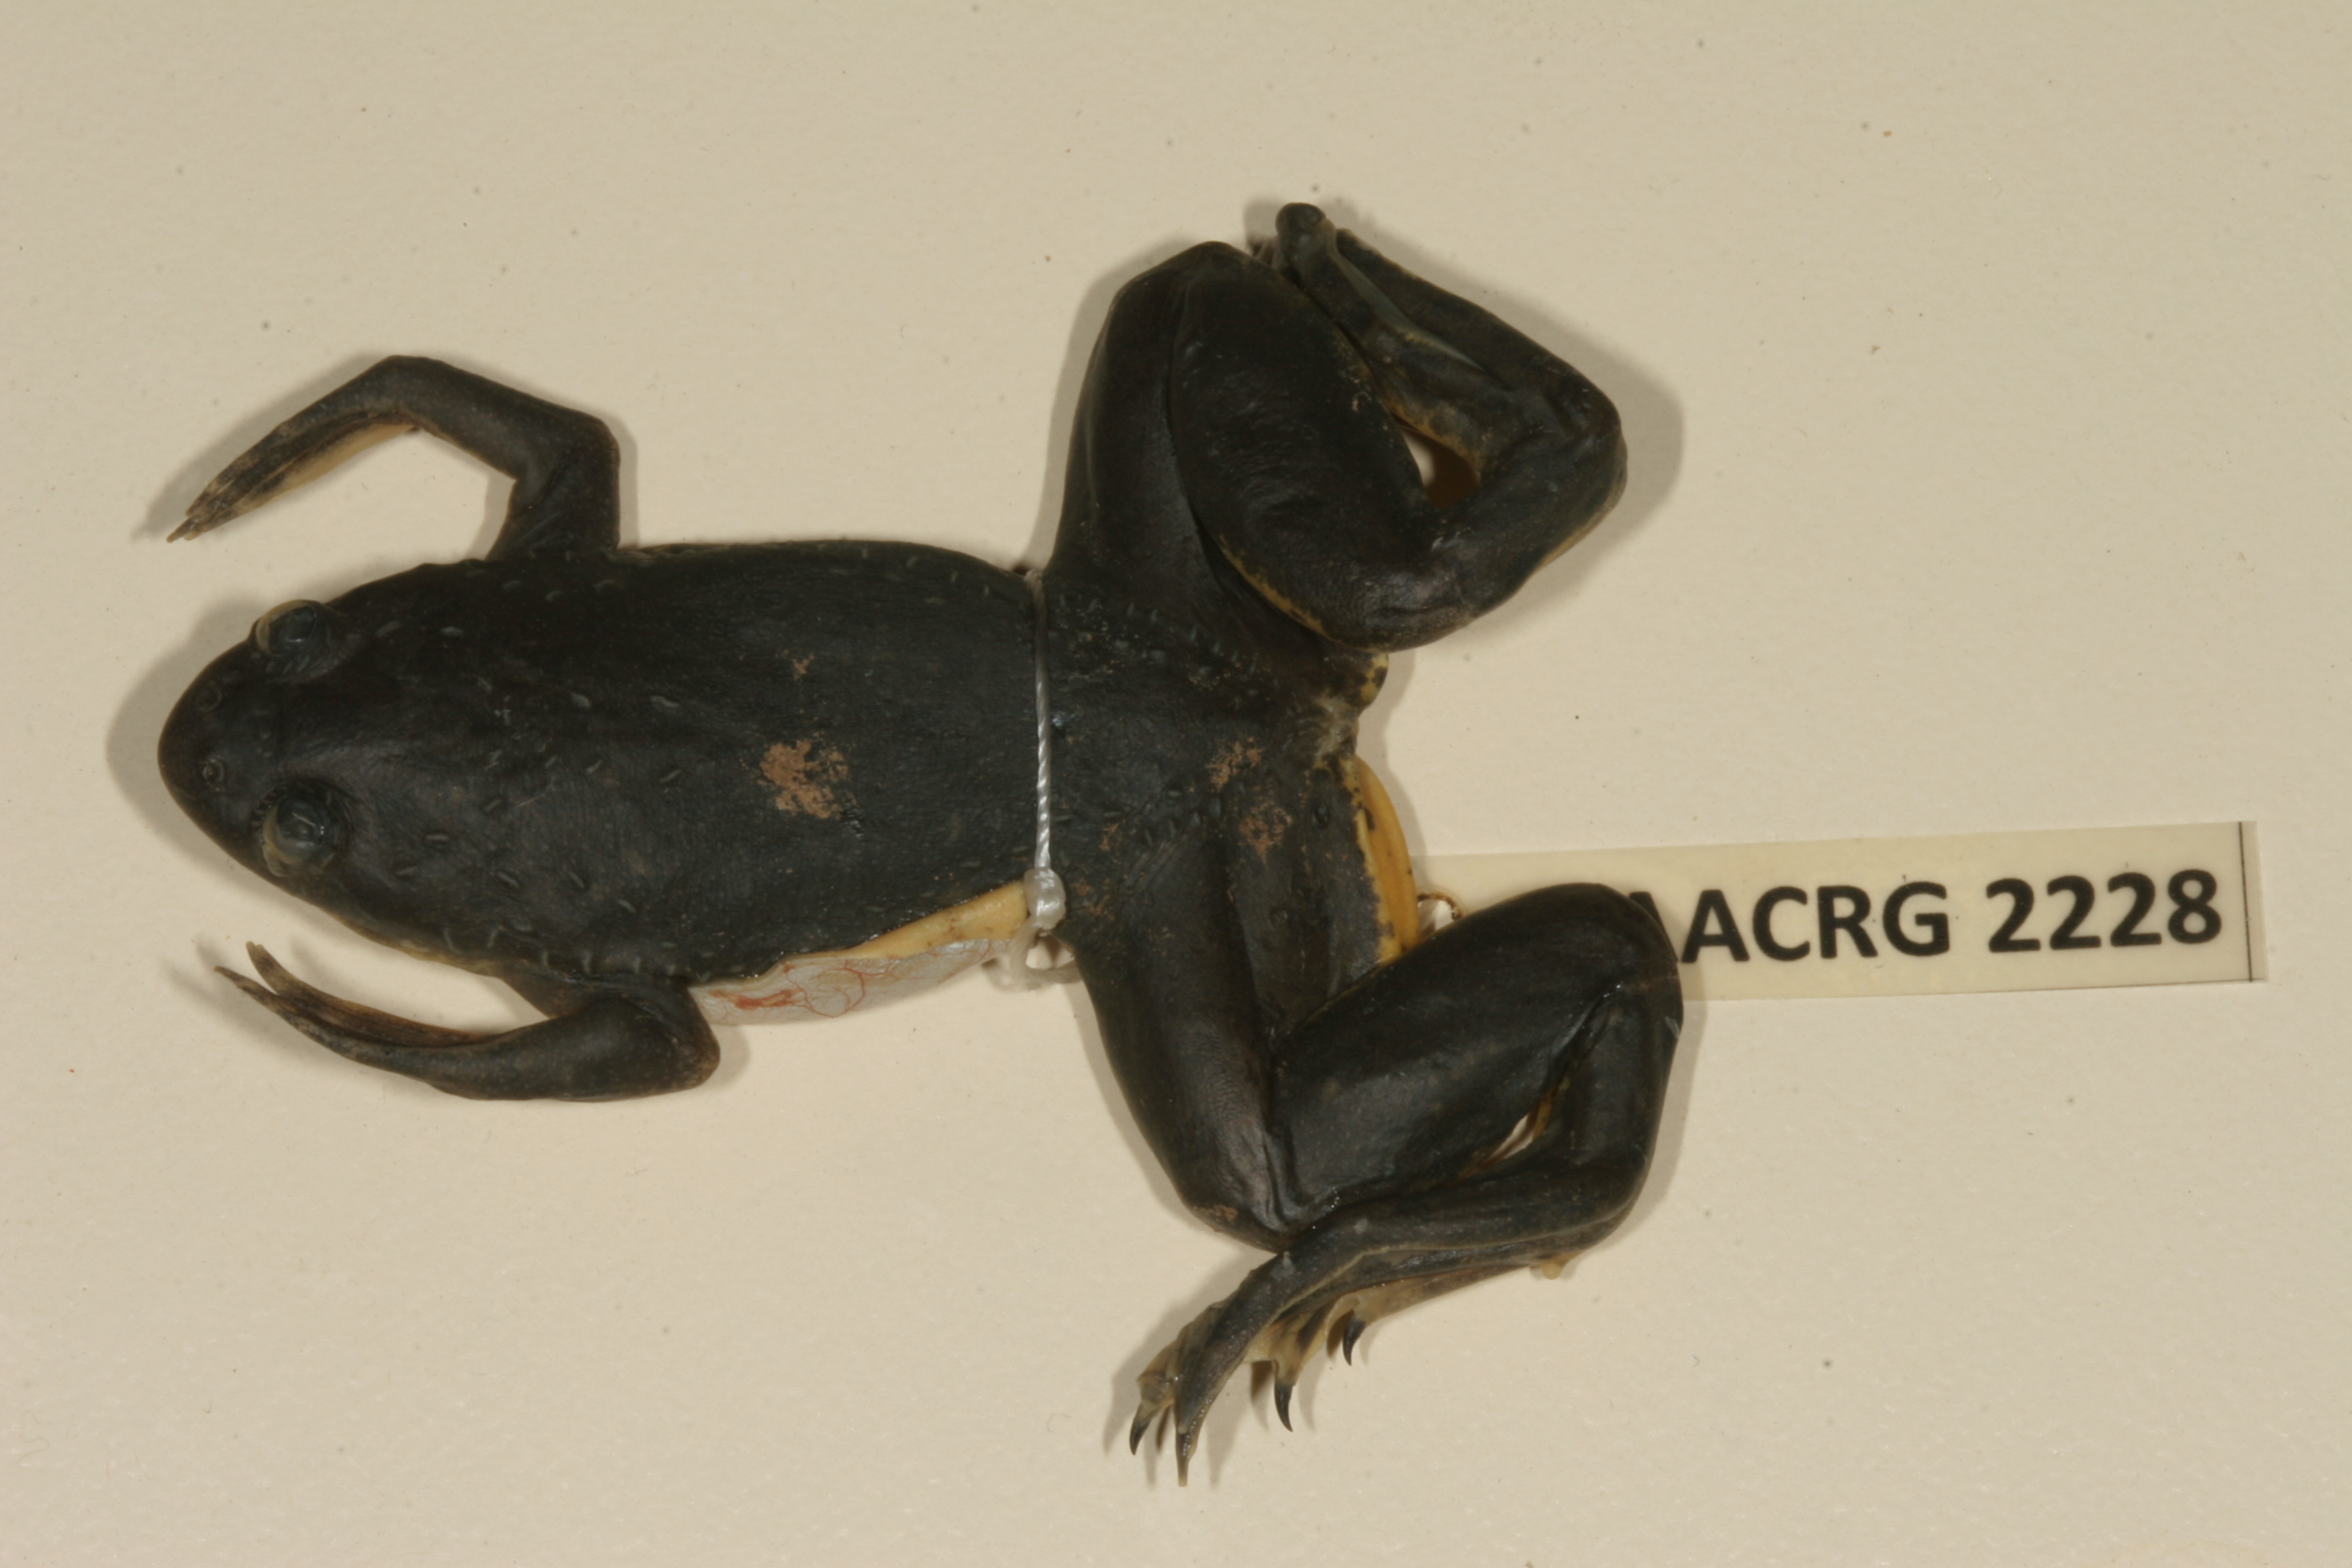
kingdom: Animalia
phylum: Chordata
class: Amphibia
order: Anura
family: Pipidae
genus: Xenopus
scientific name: Xenopus muelleri
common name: Muller's clawed frog
